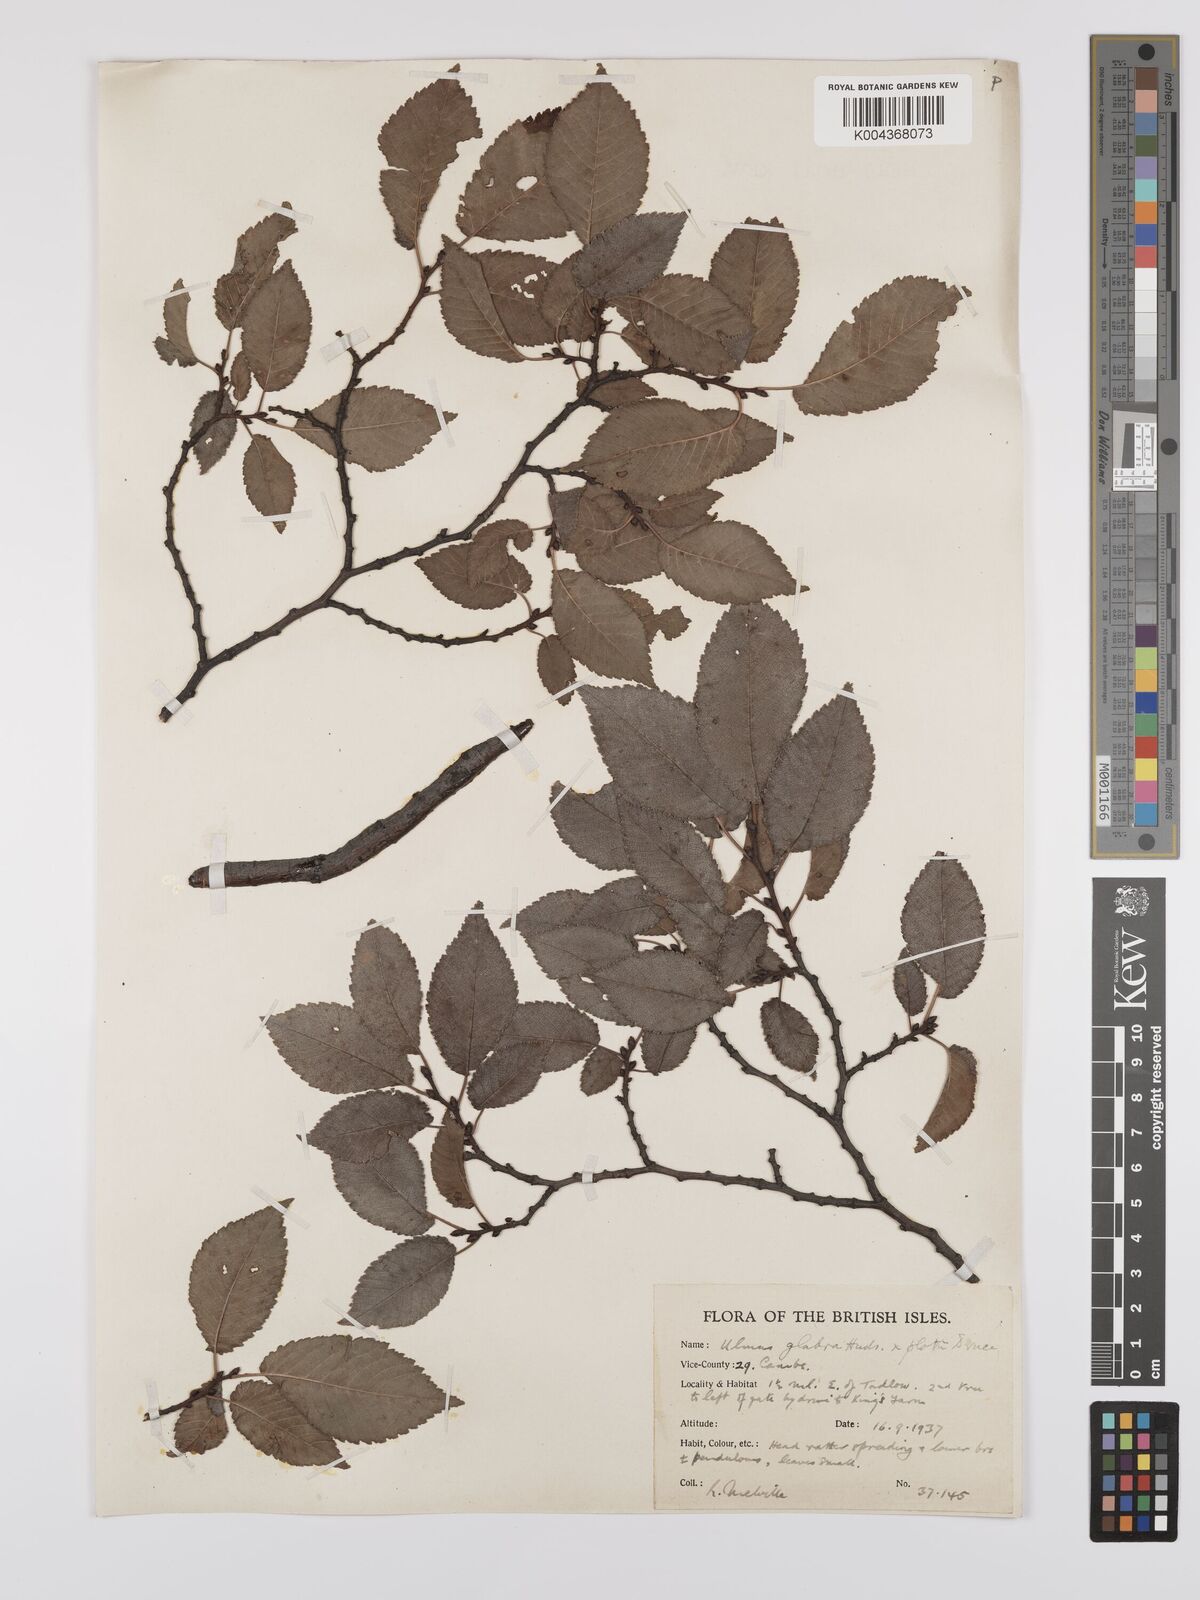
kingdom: Plantae
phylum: Tracheophyta
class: Magnoliopsida
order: Rosales
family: Ulmaceae
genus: Ulmus
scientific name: Ulmus
